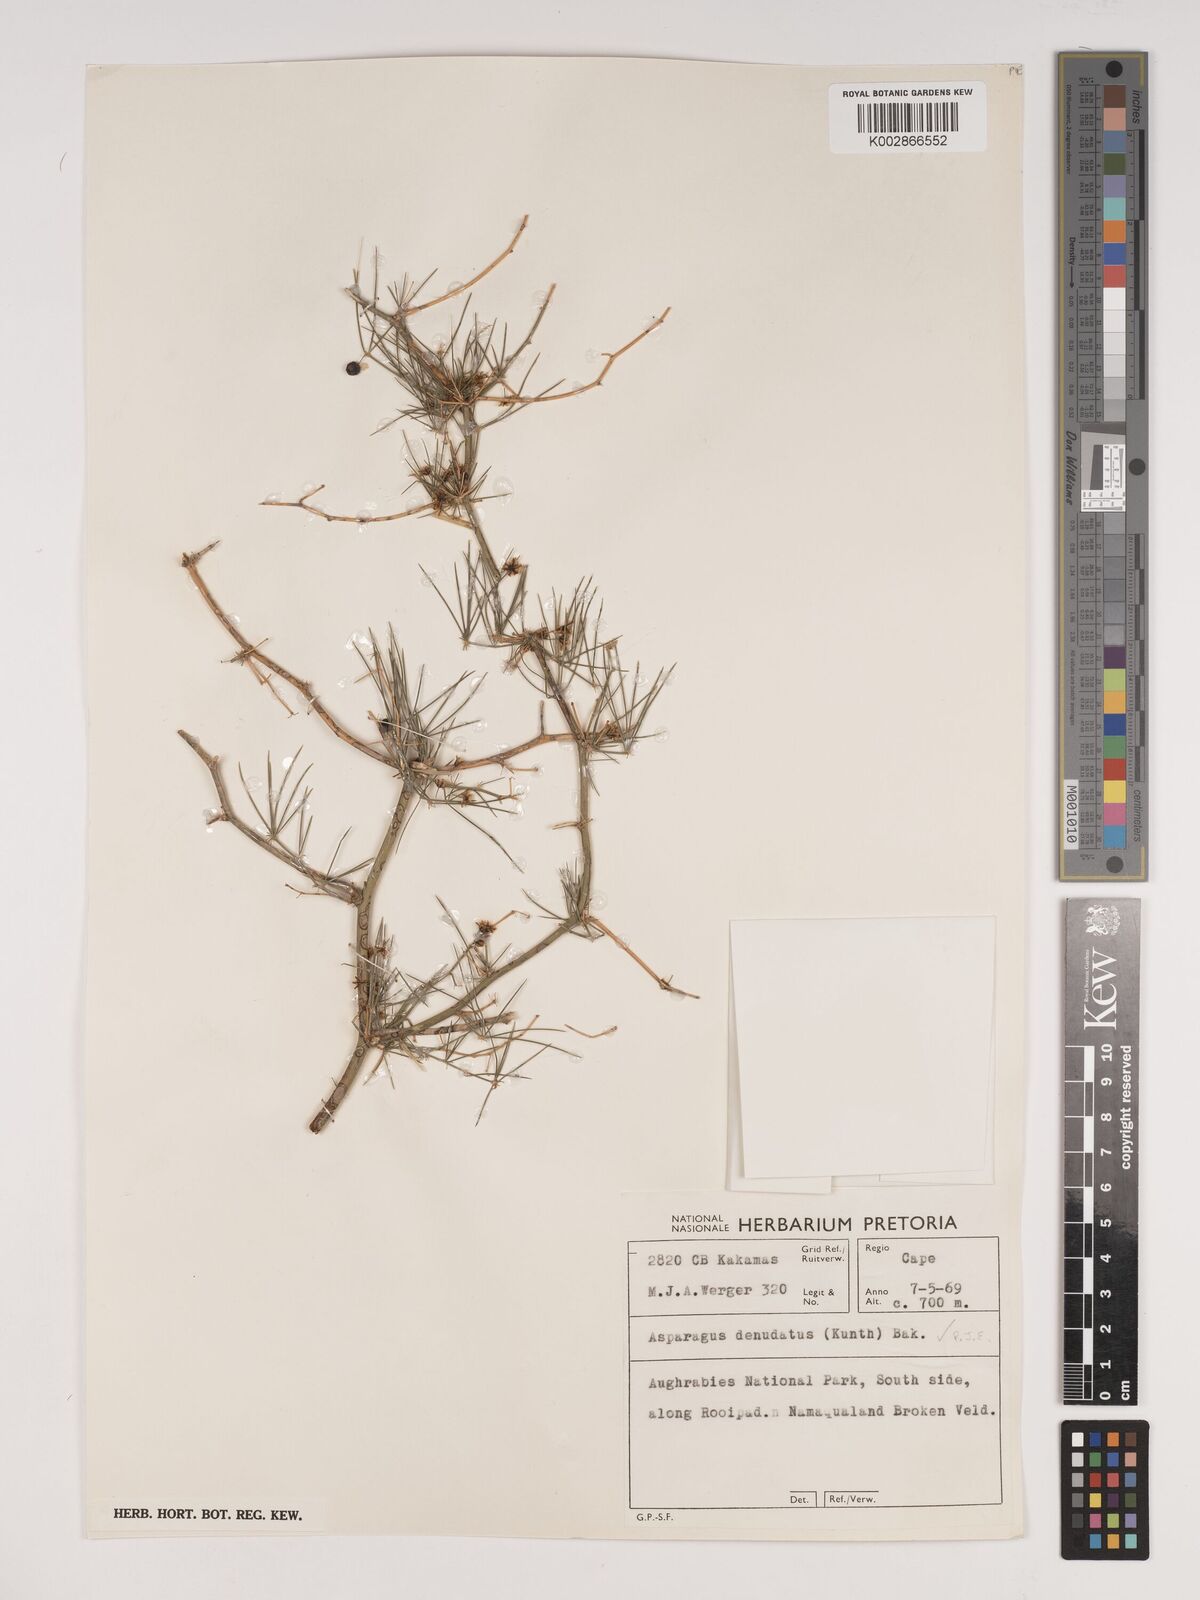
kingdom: Plantae
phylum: Tracheophyta
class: Liliopsida
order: Asparagales
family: Asparagaceae
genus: Asparagus
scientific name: Asparagus denudatus
